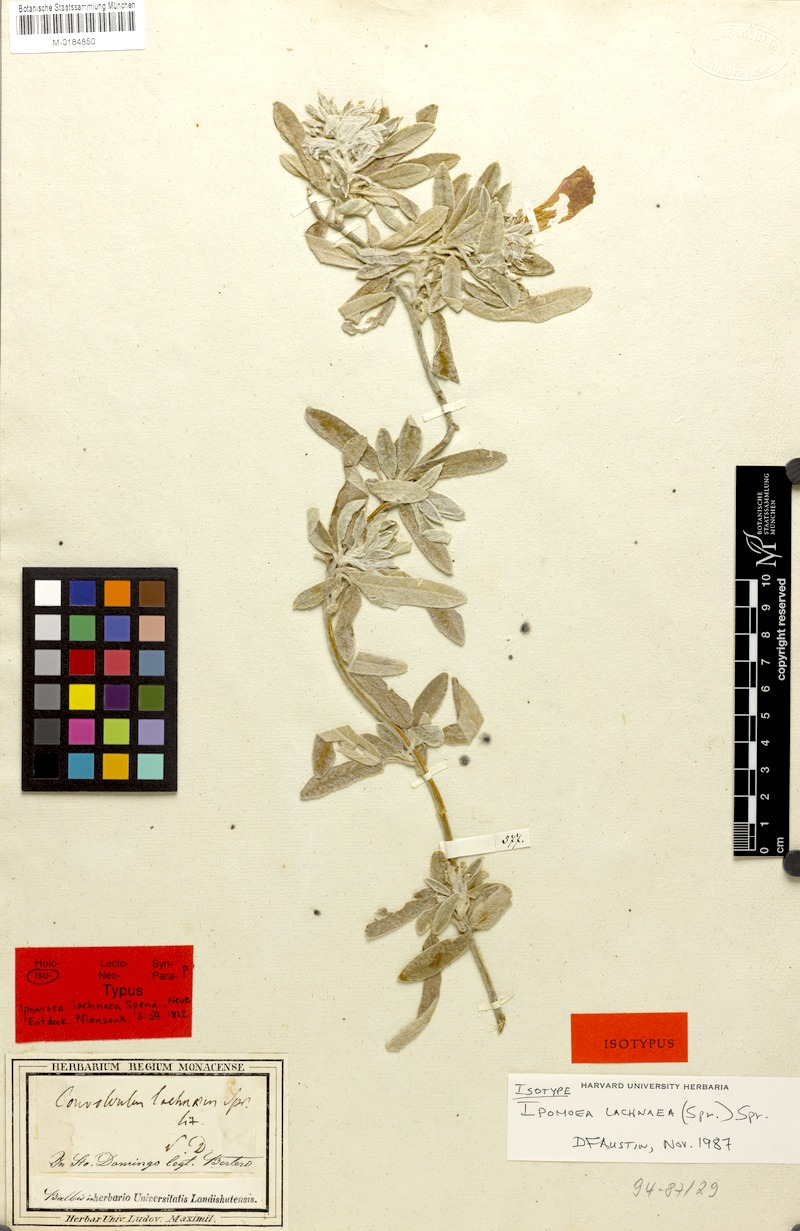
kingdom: Plantae
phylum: Tracheophyta
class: Magnoliopsida
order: Solanales
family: Convolvulaceae
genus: Ipomoea
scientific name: Ipomoea lachnaea
